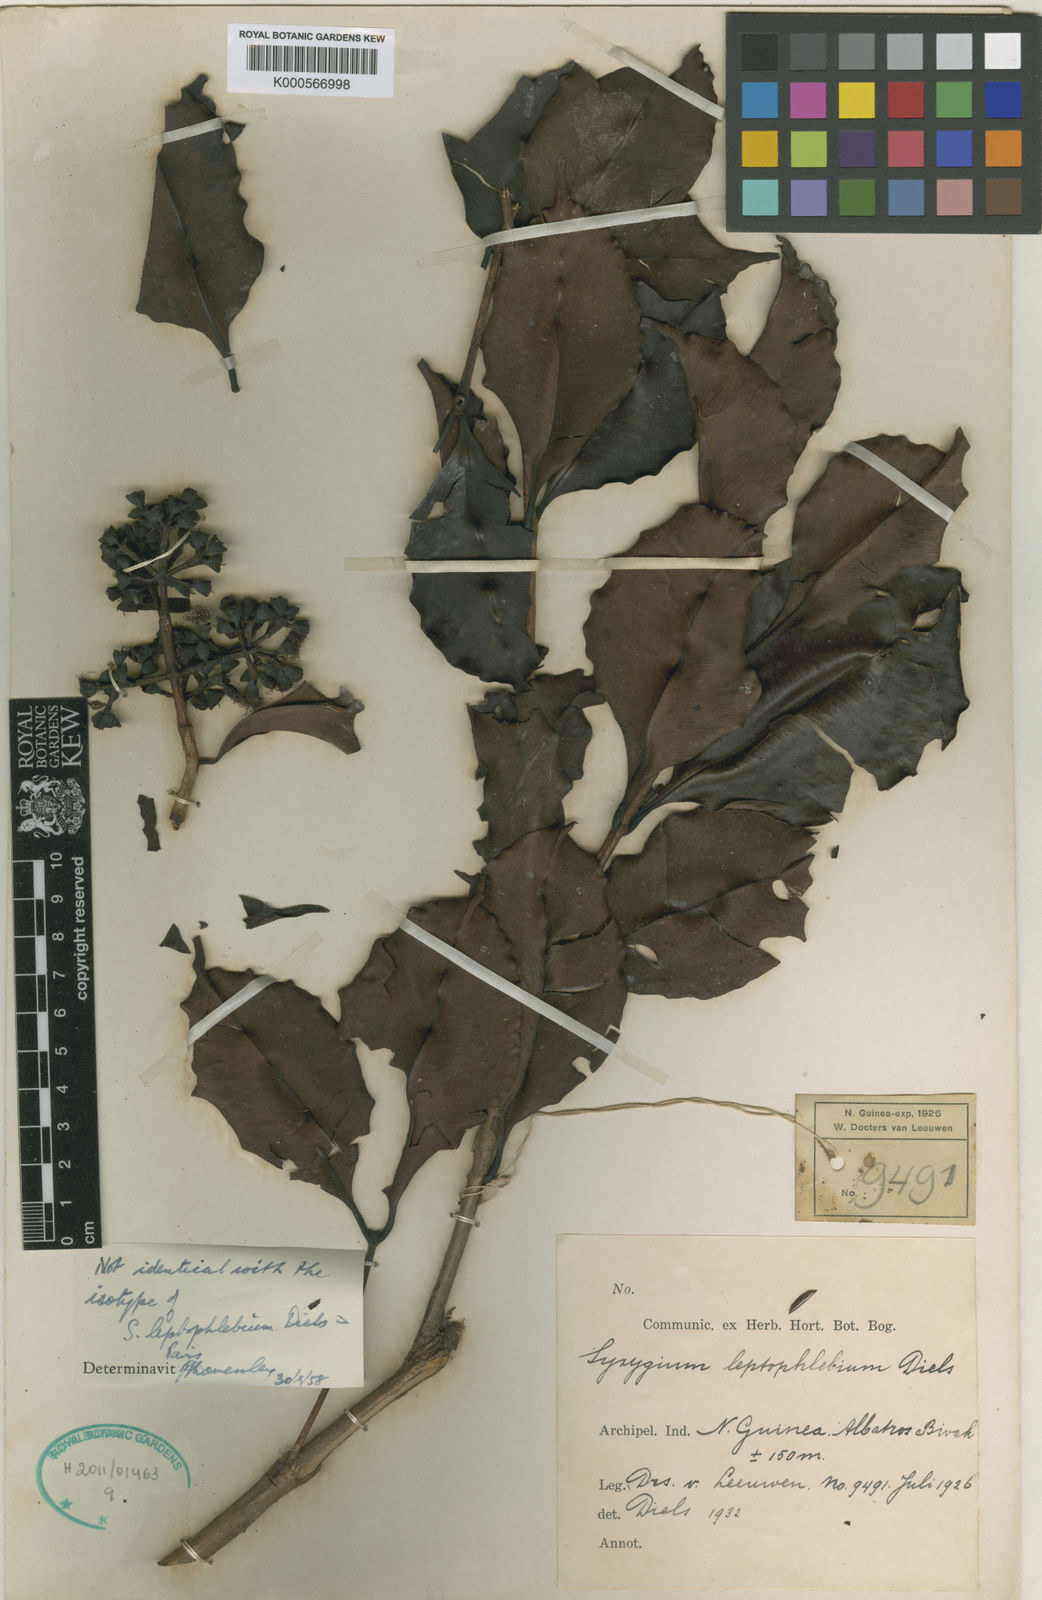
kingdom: Plantae
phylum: Tracheophyta
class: Magnoliopsida
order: Myrtales
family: Myrtaceae
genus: Syzygium
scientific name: Syzygium leptoneurum
